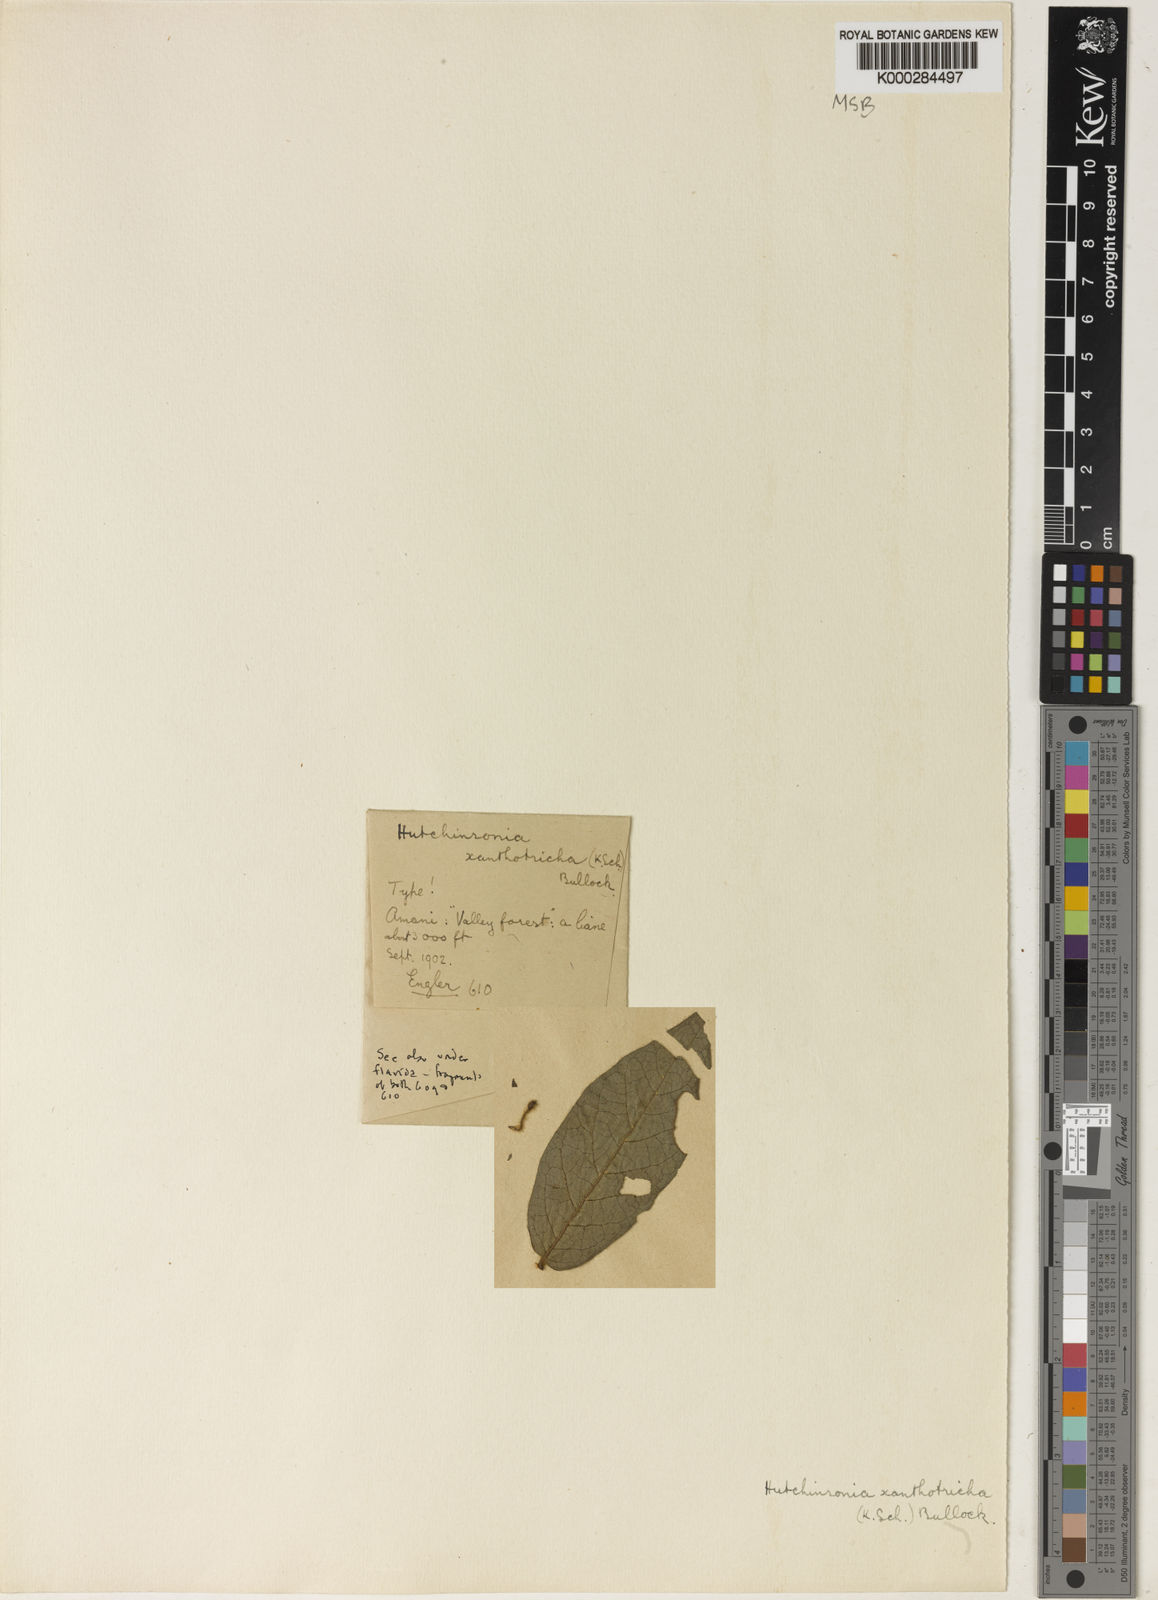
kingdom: Plantae
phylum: Tracheophyta
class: Magnoliopsida
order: Gentianales
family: Rubiaceae
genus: Rytigynia
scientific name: Rytigynia flavida
